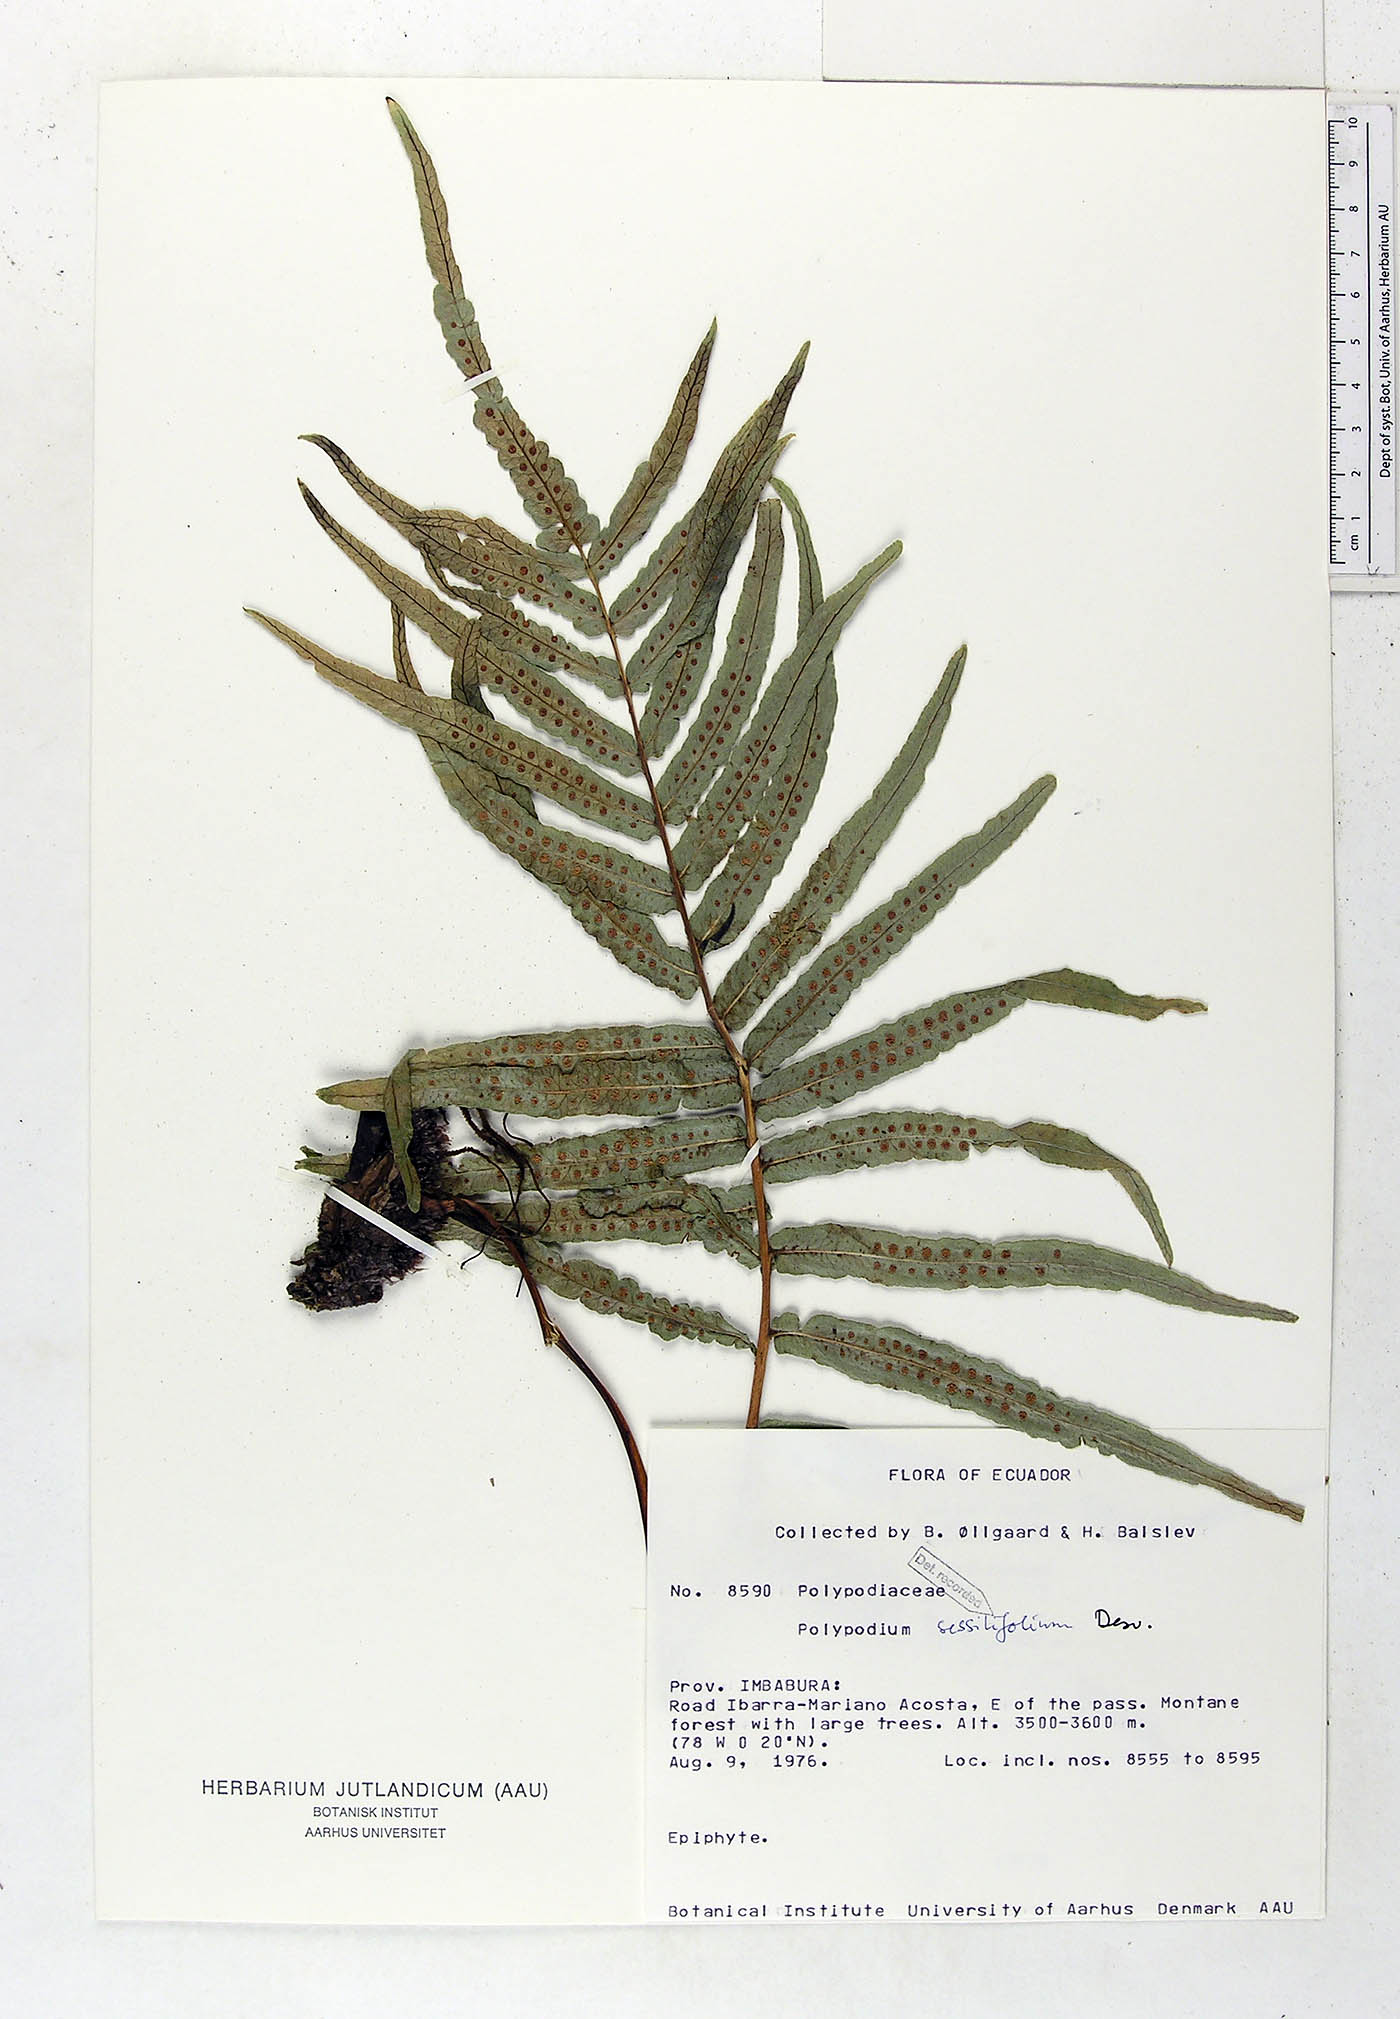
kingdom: Plantae
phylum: Tracheophyta
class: Polypodiopsida
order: Polypodiales
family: Polypodiaceae
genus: Serpocaulon
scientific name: Serpocaulon sessilifolium
